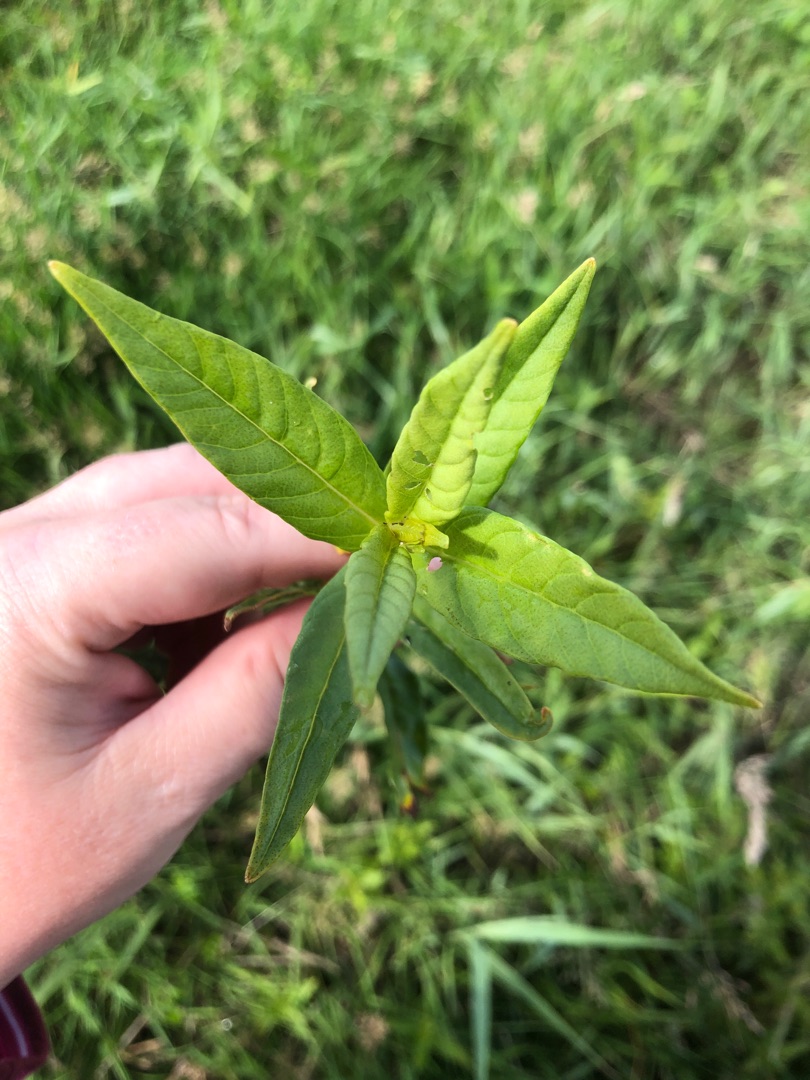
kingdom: Plantae
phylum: Tracheophyta
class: Magnoliopsida
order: Ericales
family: Primulaceae
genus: Lysimachia
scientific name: Lysimachia thyrsiflora
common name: Dusk-fredløs
